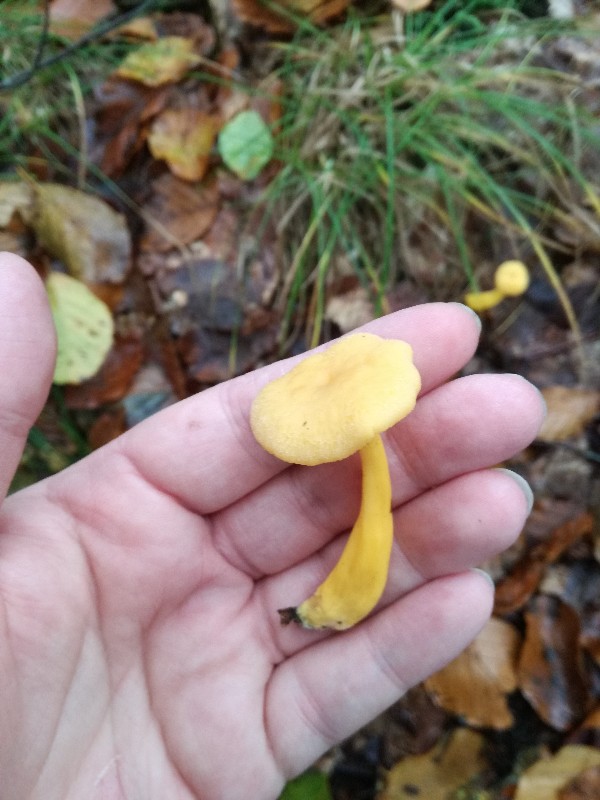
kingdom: Fungi
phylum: Basidiomycota
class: Agaricomycetes
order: Cantharellales
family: Hydnaceae
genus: Craterellus
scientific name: Craterellus tubaeformis
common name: tragt-kantarel
